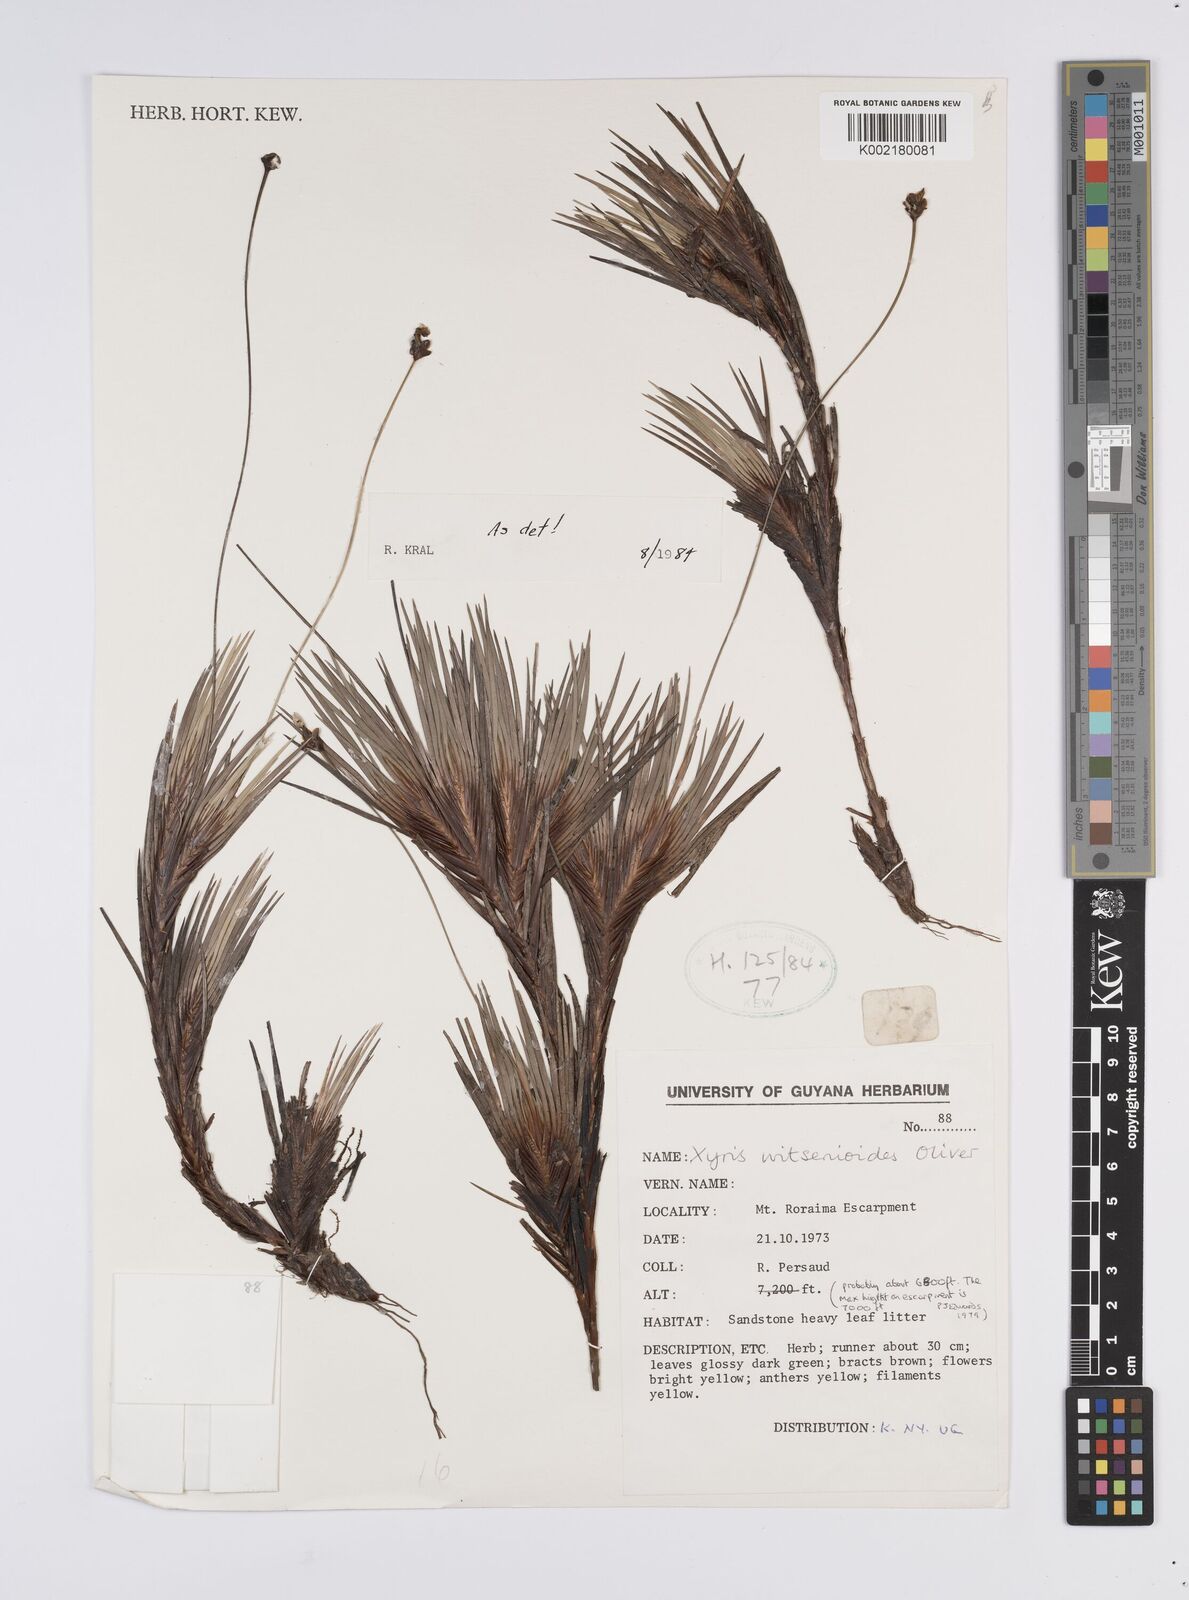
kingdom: Plantae
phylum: Tracheophyta
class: Liliopsida
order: Poales
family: Xyridaceae
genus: Xyris
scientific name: Xyris witsenioides
